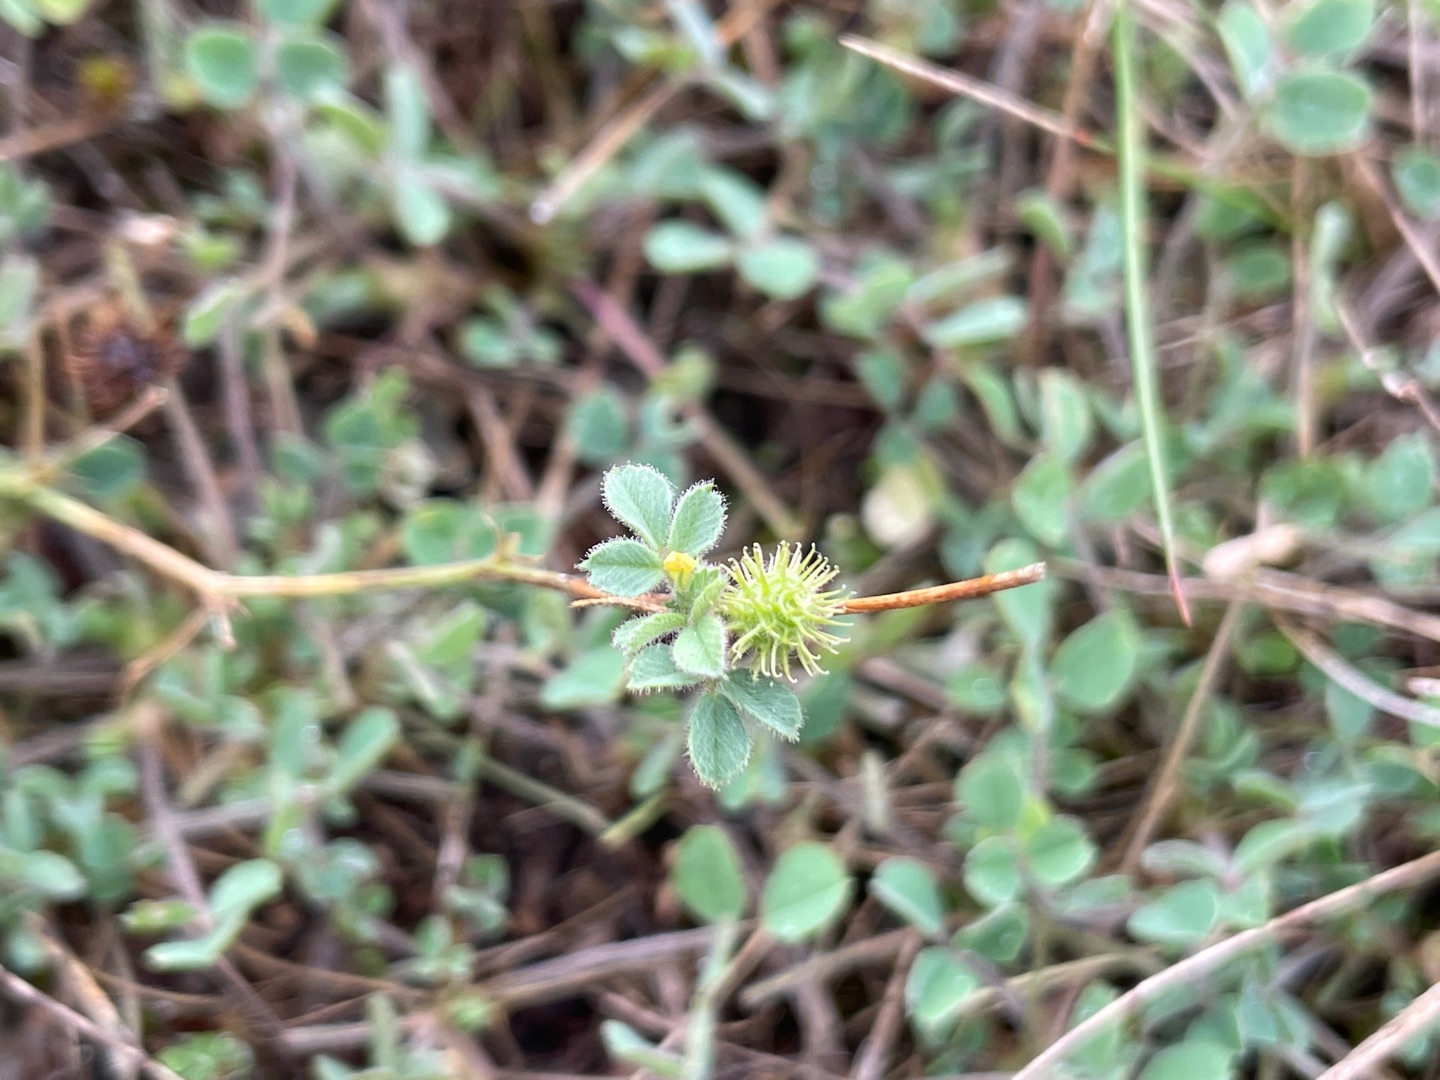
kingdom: Plantae
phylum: Tracheophyta
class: Magnoliopsida
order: Fabales
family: Fabaceae
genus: Medicago
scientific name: Medicago minima
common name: Liden sneglebælg
